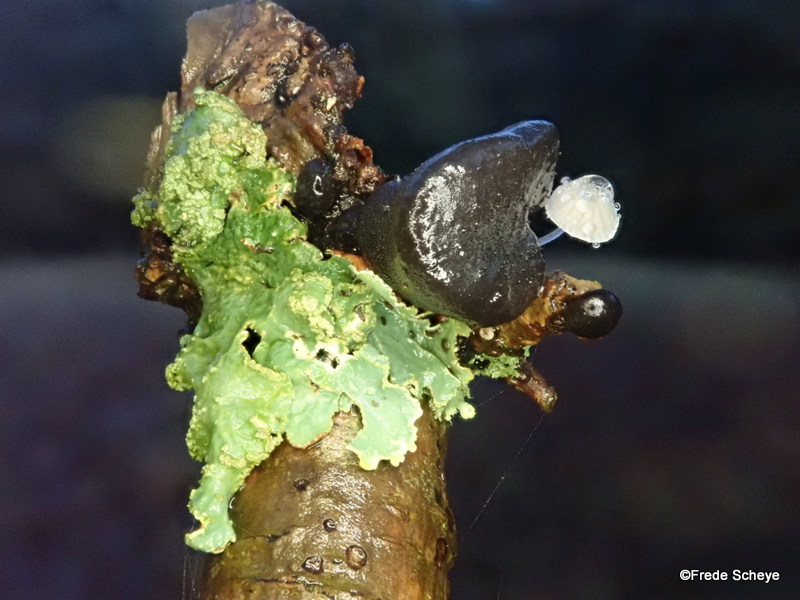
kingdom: Fungi
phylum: Basidiomycota
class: Agaricomycetes
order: Auriculariales
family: Auriculariaceae
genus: Exidia
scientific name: Exidia glandulosa
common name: ege-bævretop
